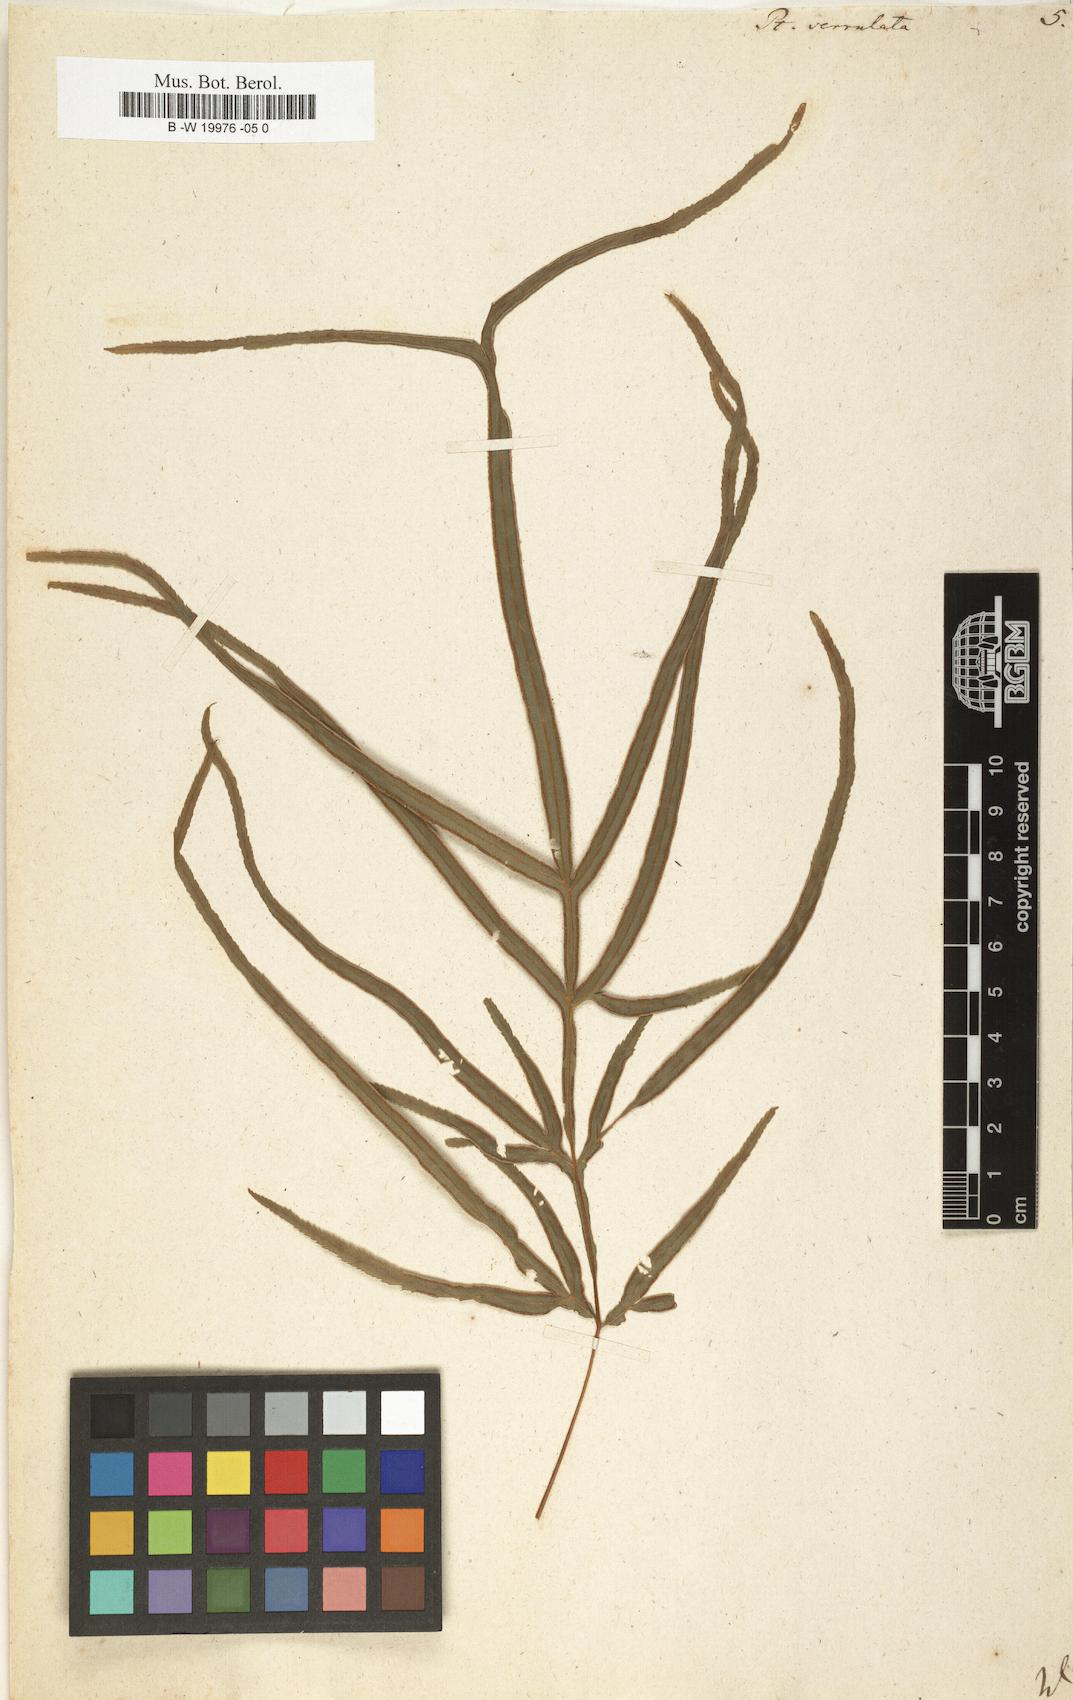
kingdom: Plantae
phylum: Tracheophyta
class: Polypodiopsida
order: Polypodiales
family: Pteridaceae
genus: Pteris
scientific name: Pteris
